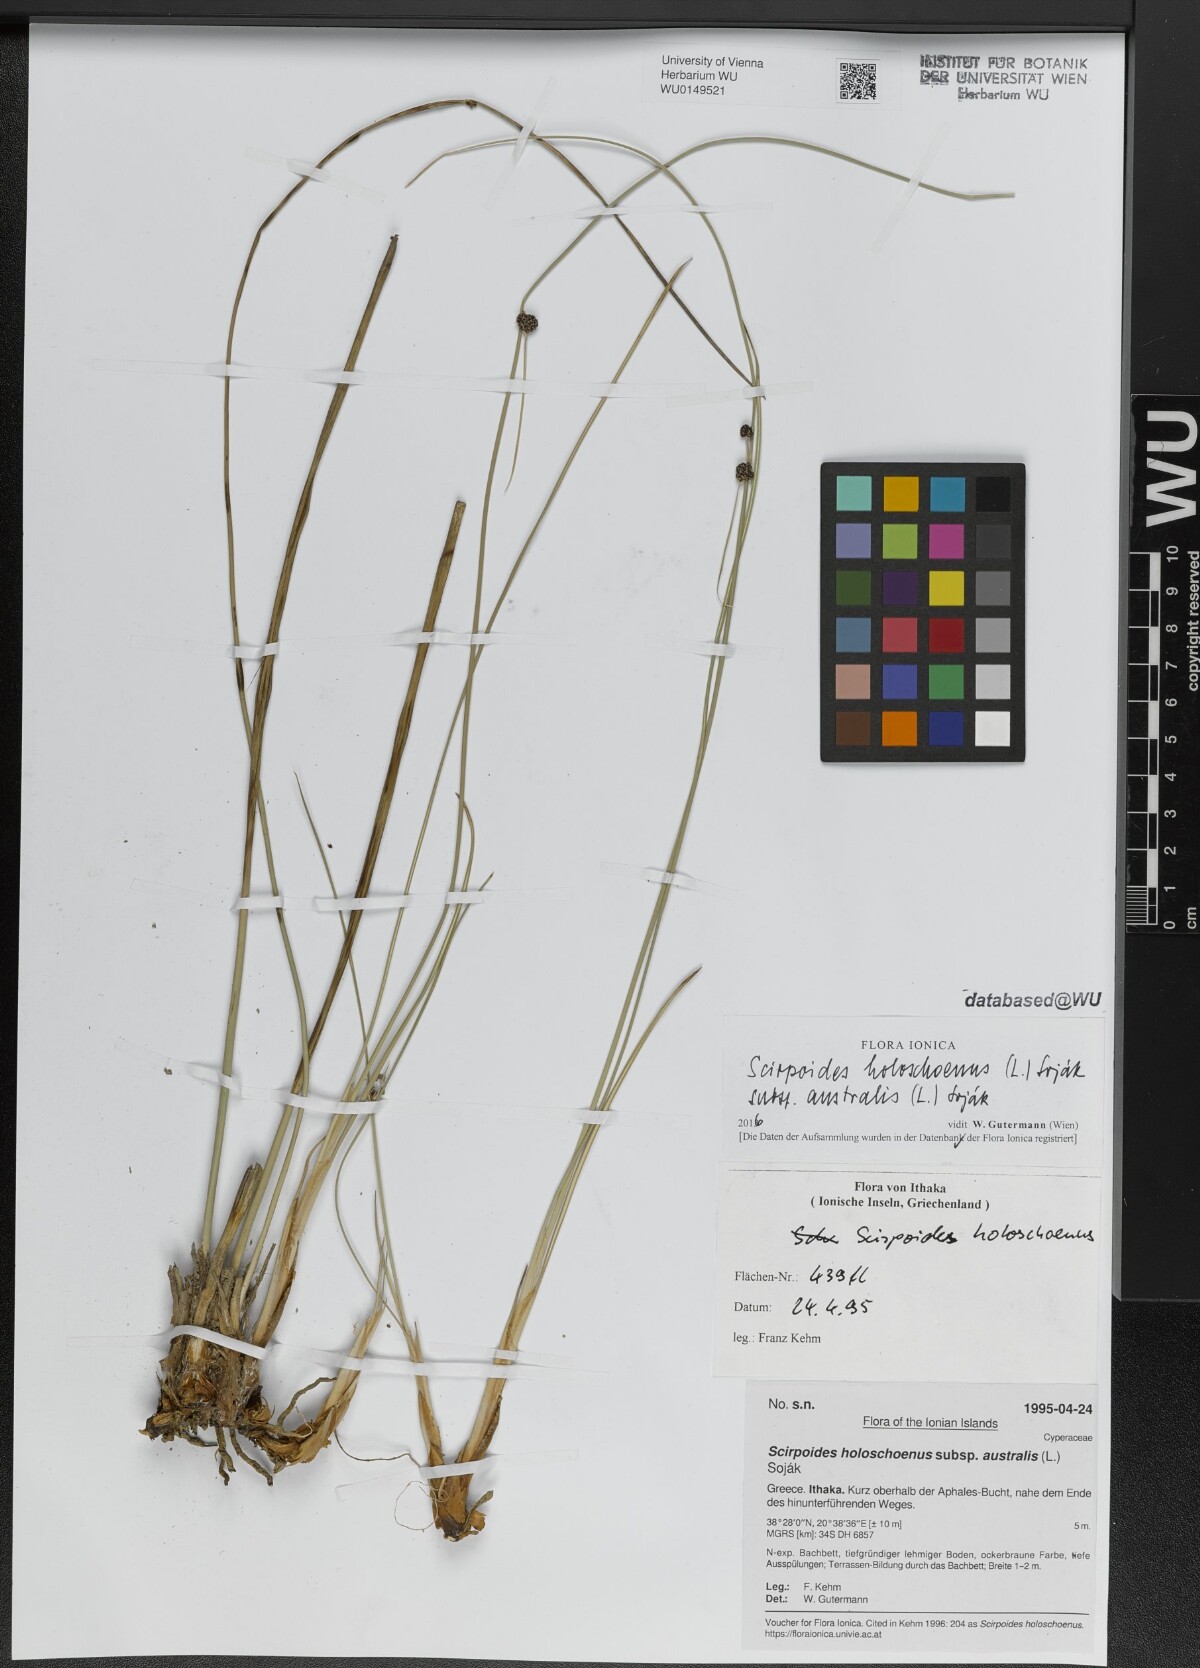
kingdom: Plantae
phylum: Tracheophyta
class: Liliopsida
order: Poales
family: Cyperaceae
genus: Scirpoides
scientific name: Scirpoides holoschoenus
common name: Round-headed club-rush
